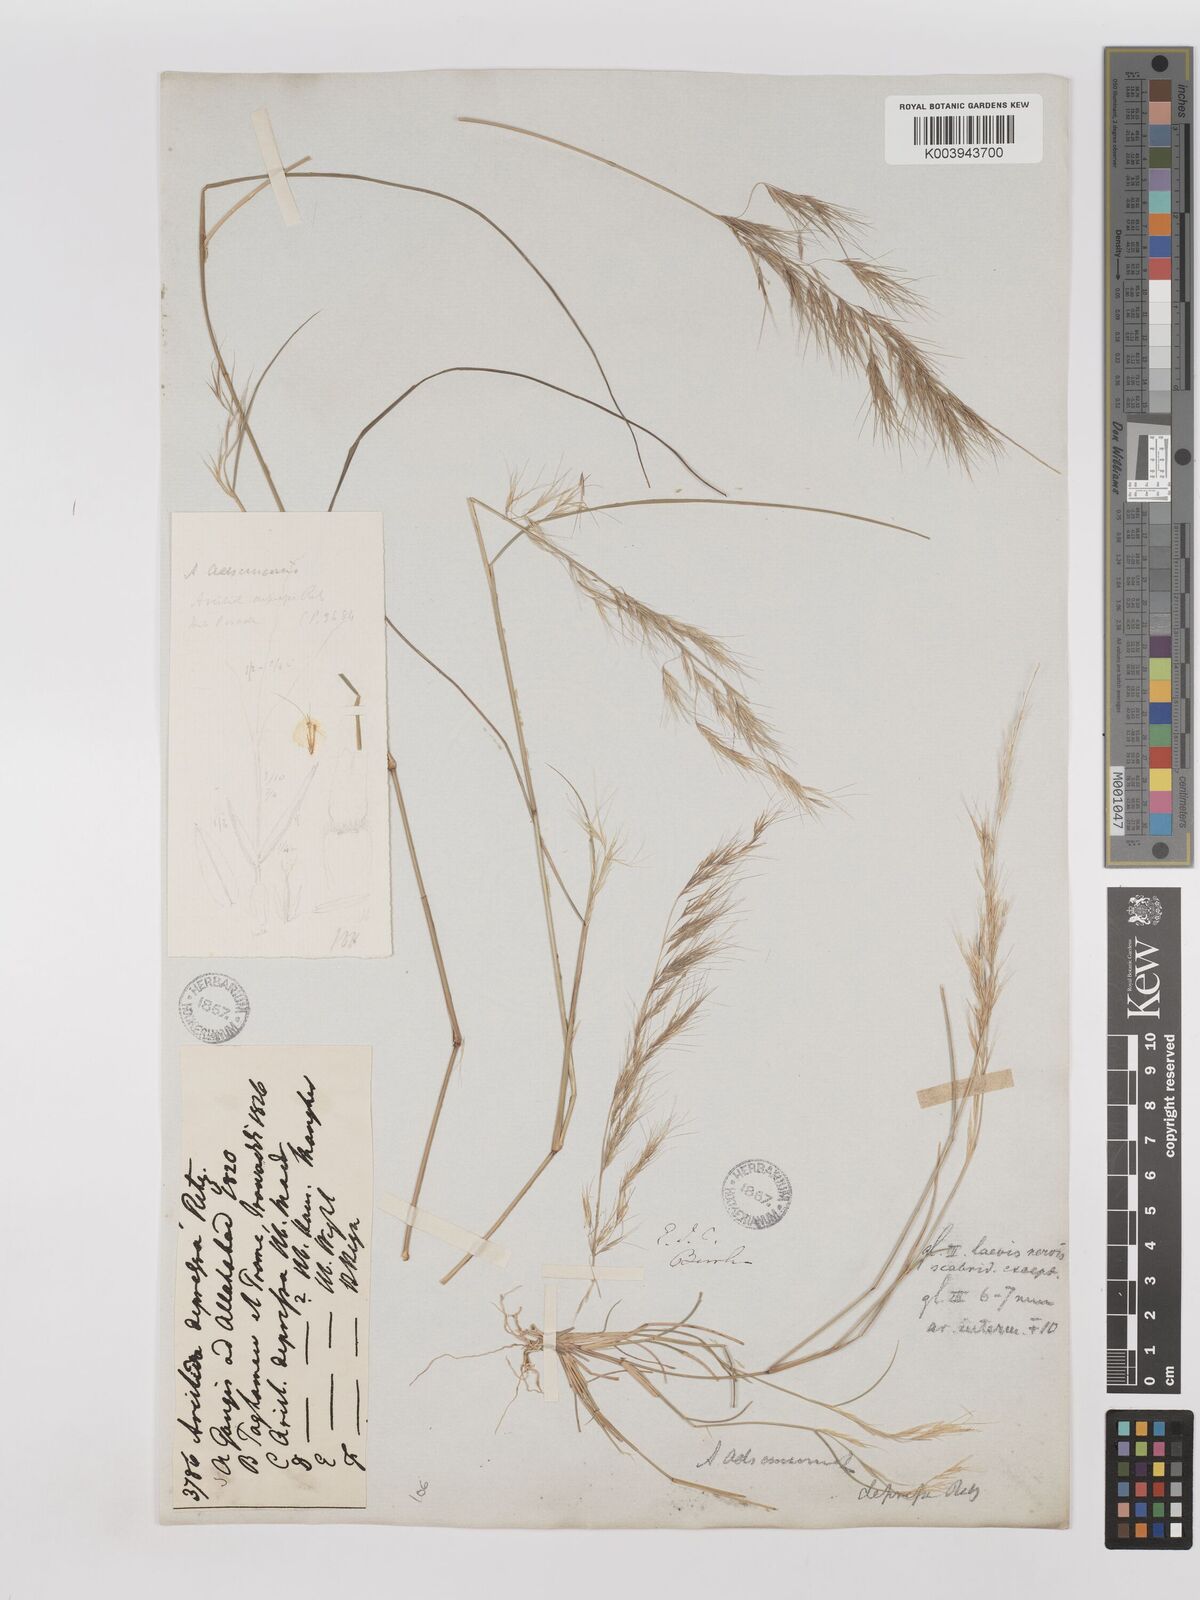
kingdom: Plantae
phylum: Tracheophyta
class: Liliopsida
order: Poales
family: Poaceae
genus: Aristida
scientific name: Aristida adscensionis
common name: Sixweeks threeawn
